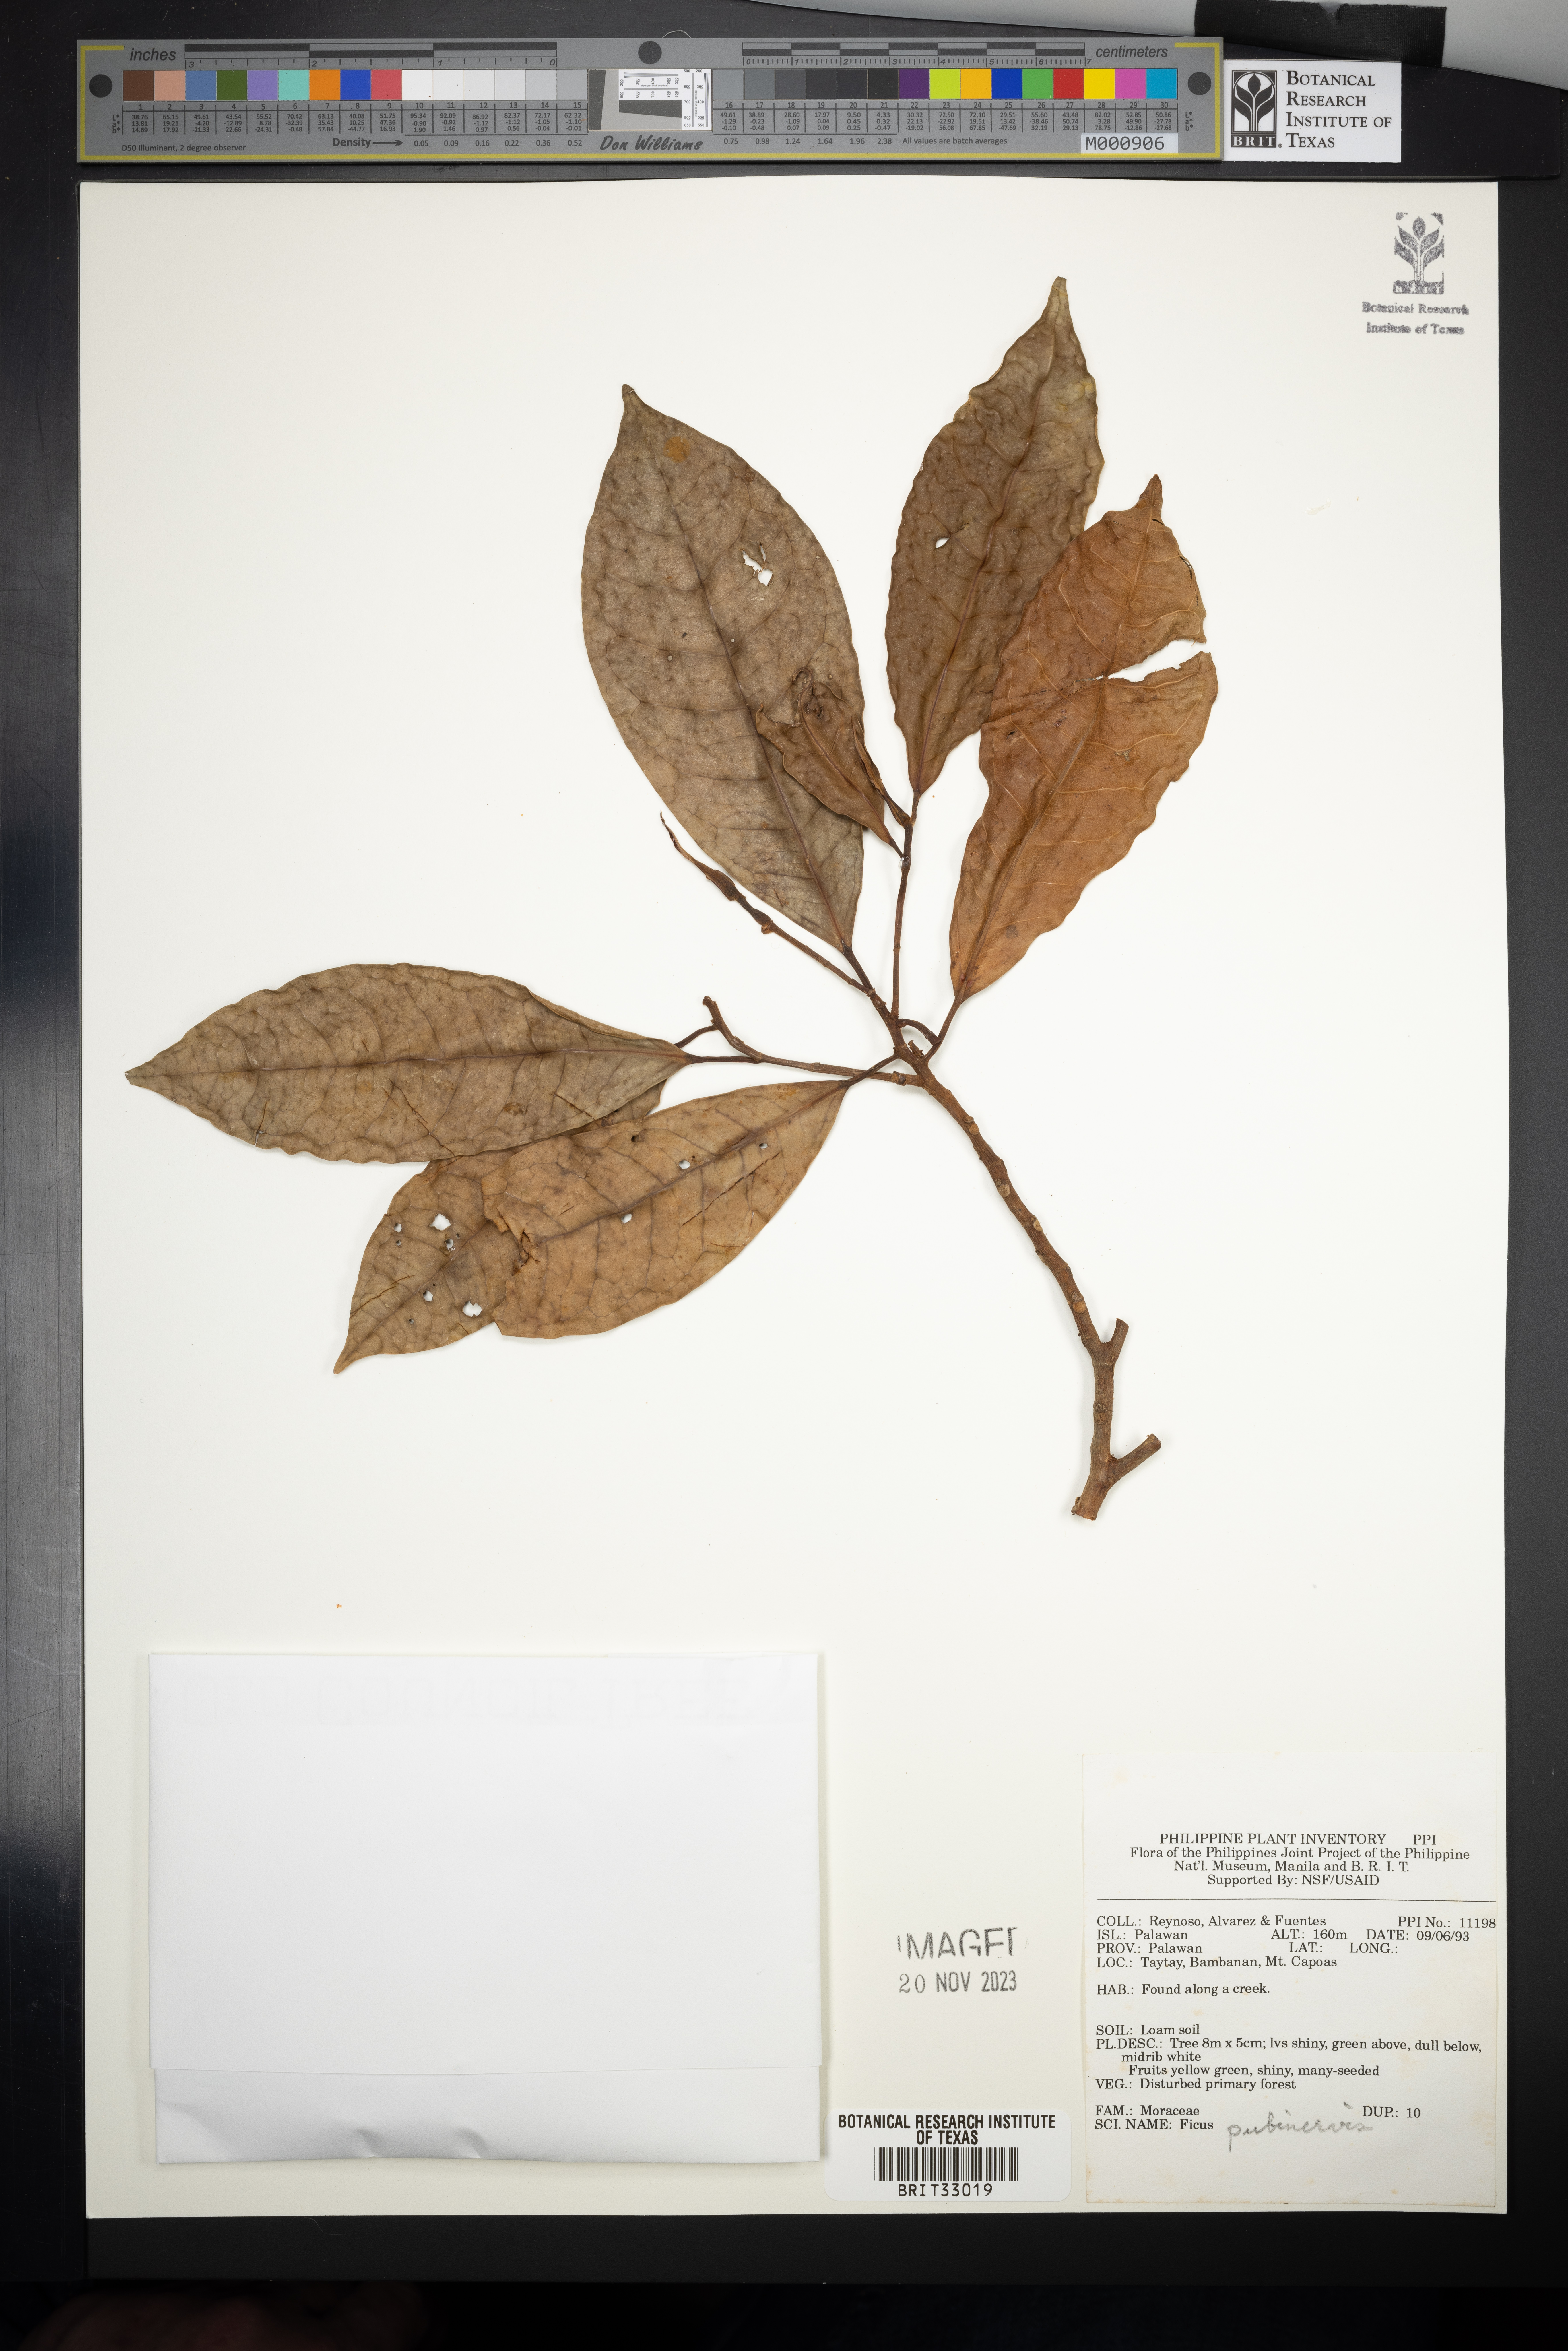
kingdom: Plantae
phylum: Tracheophyta
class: Magnoliopsida
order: Rosales
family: Moraceae
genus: Ficus
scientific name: Ficus nervosa
